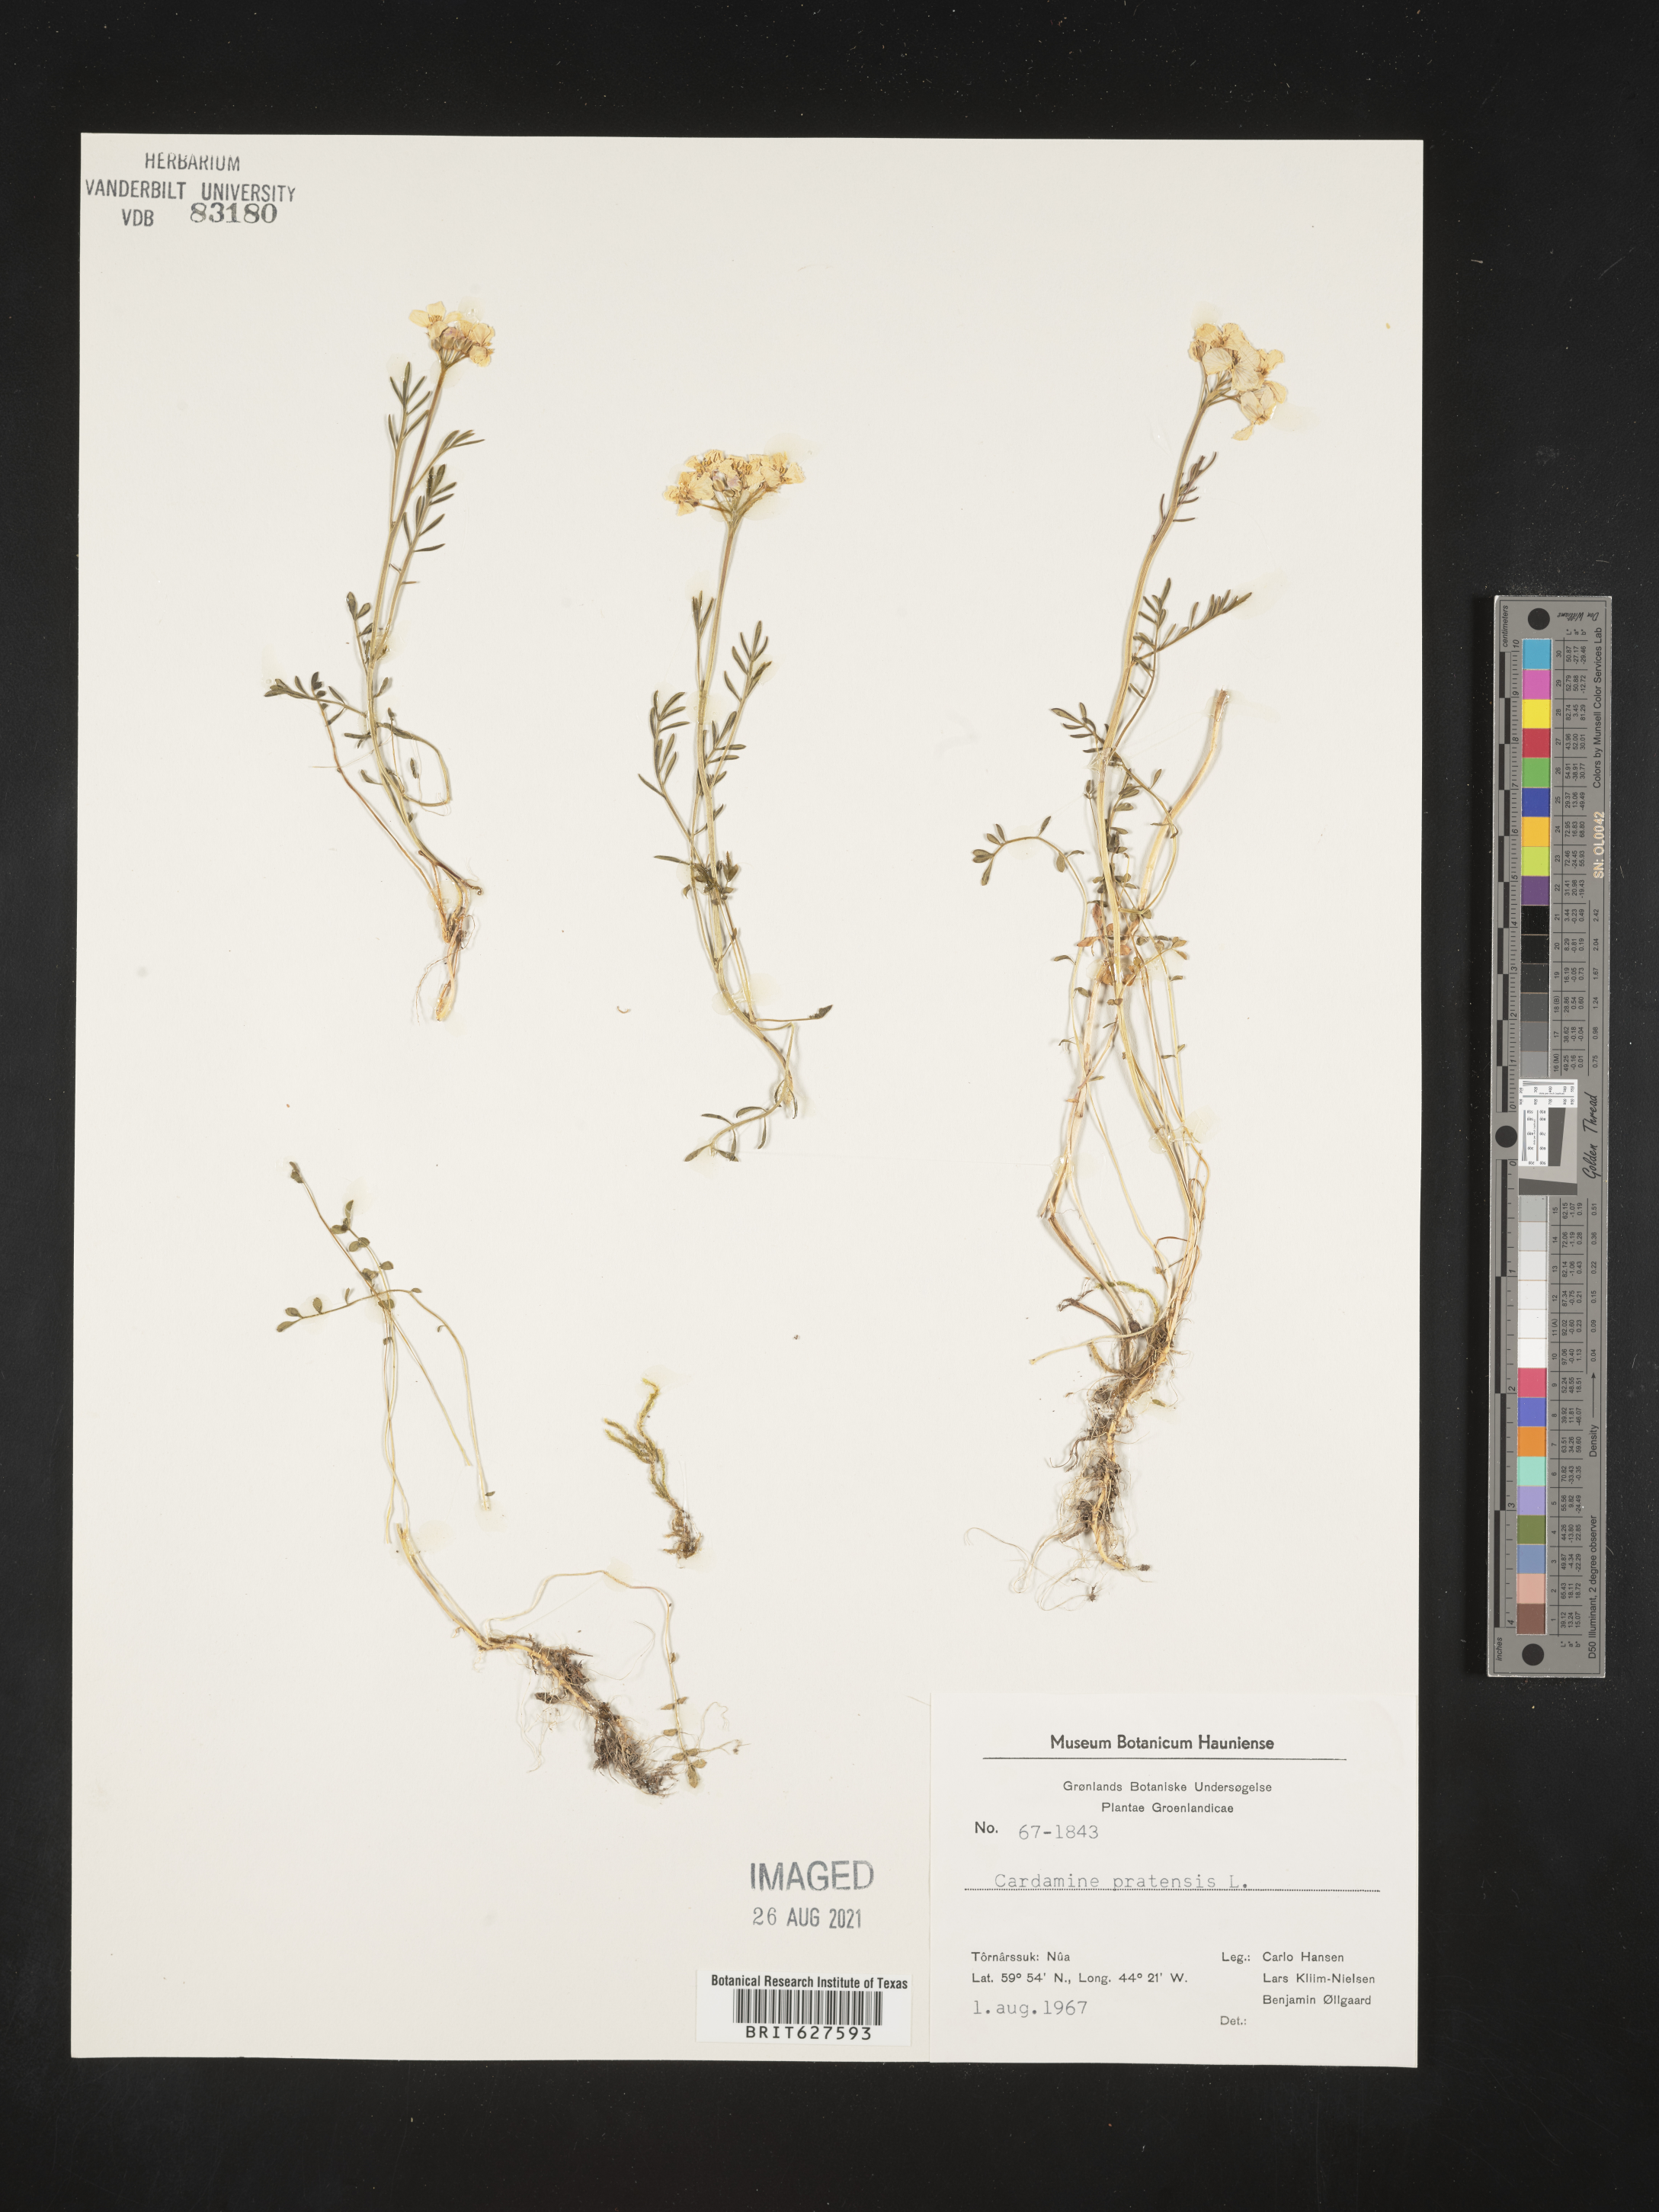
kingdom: Plantae
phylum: Tracheophyta
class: Magnoliopsida
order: Brassicales
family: Brassicaceae
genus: Cardamine
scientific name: Cardamine pratensis
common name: Cuckoo flower
